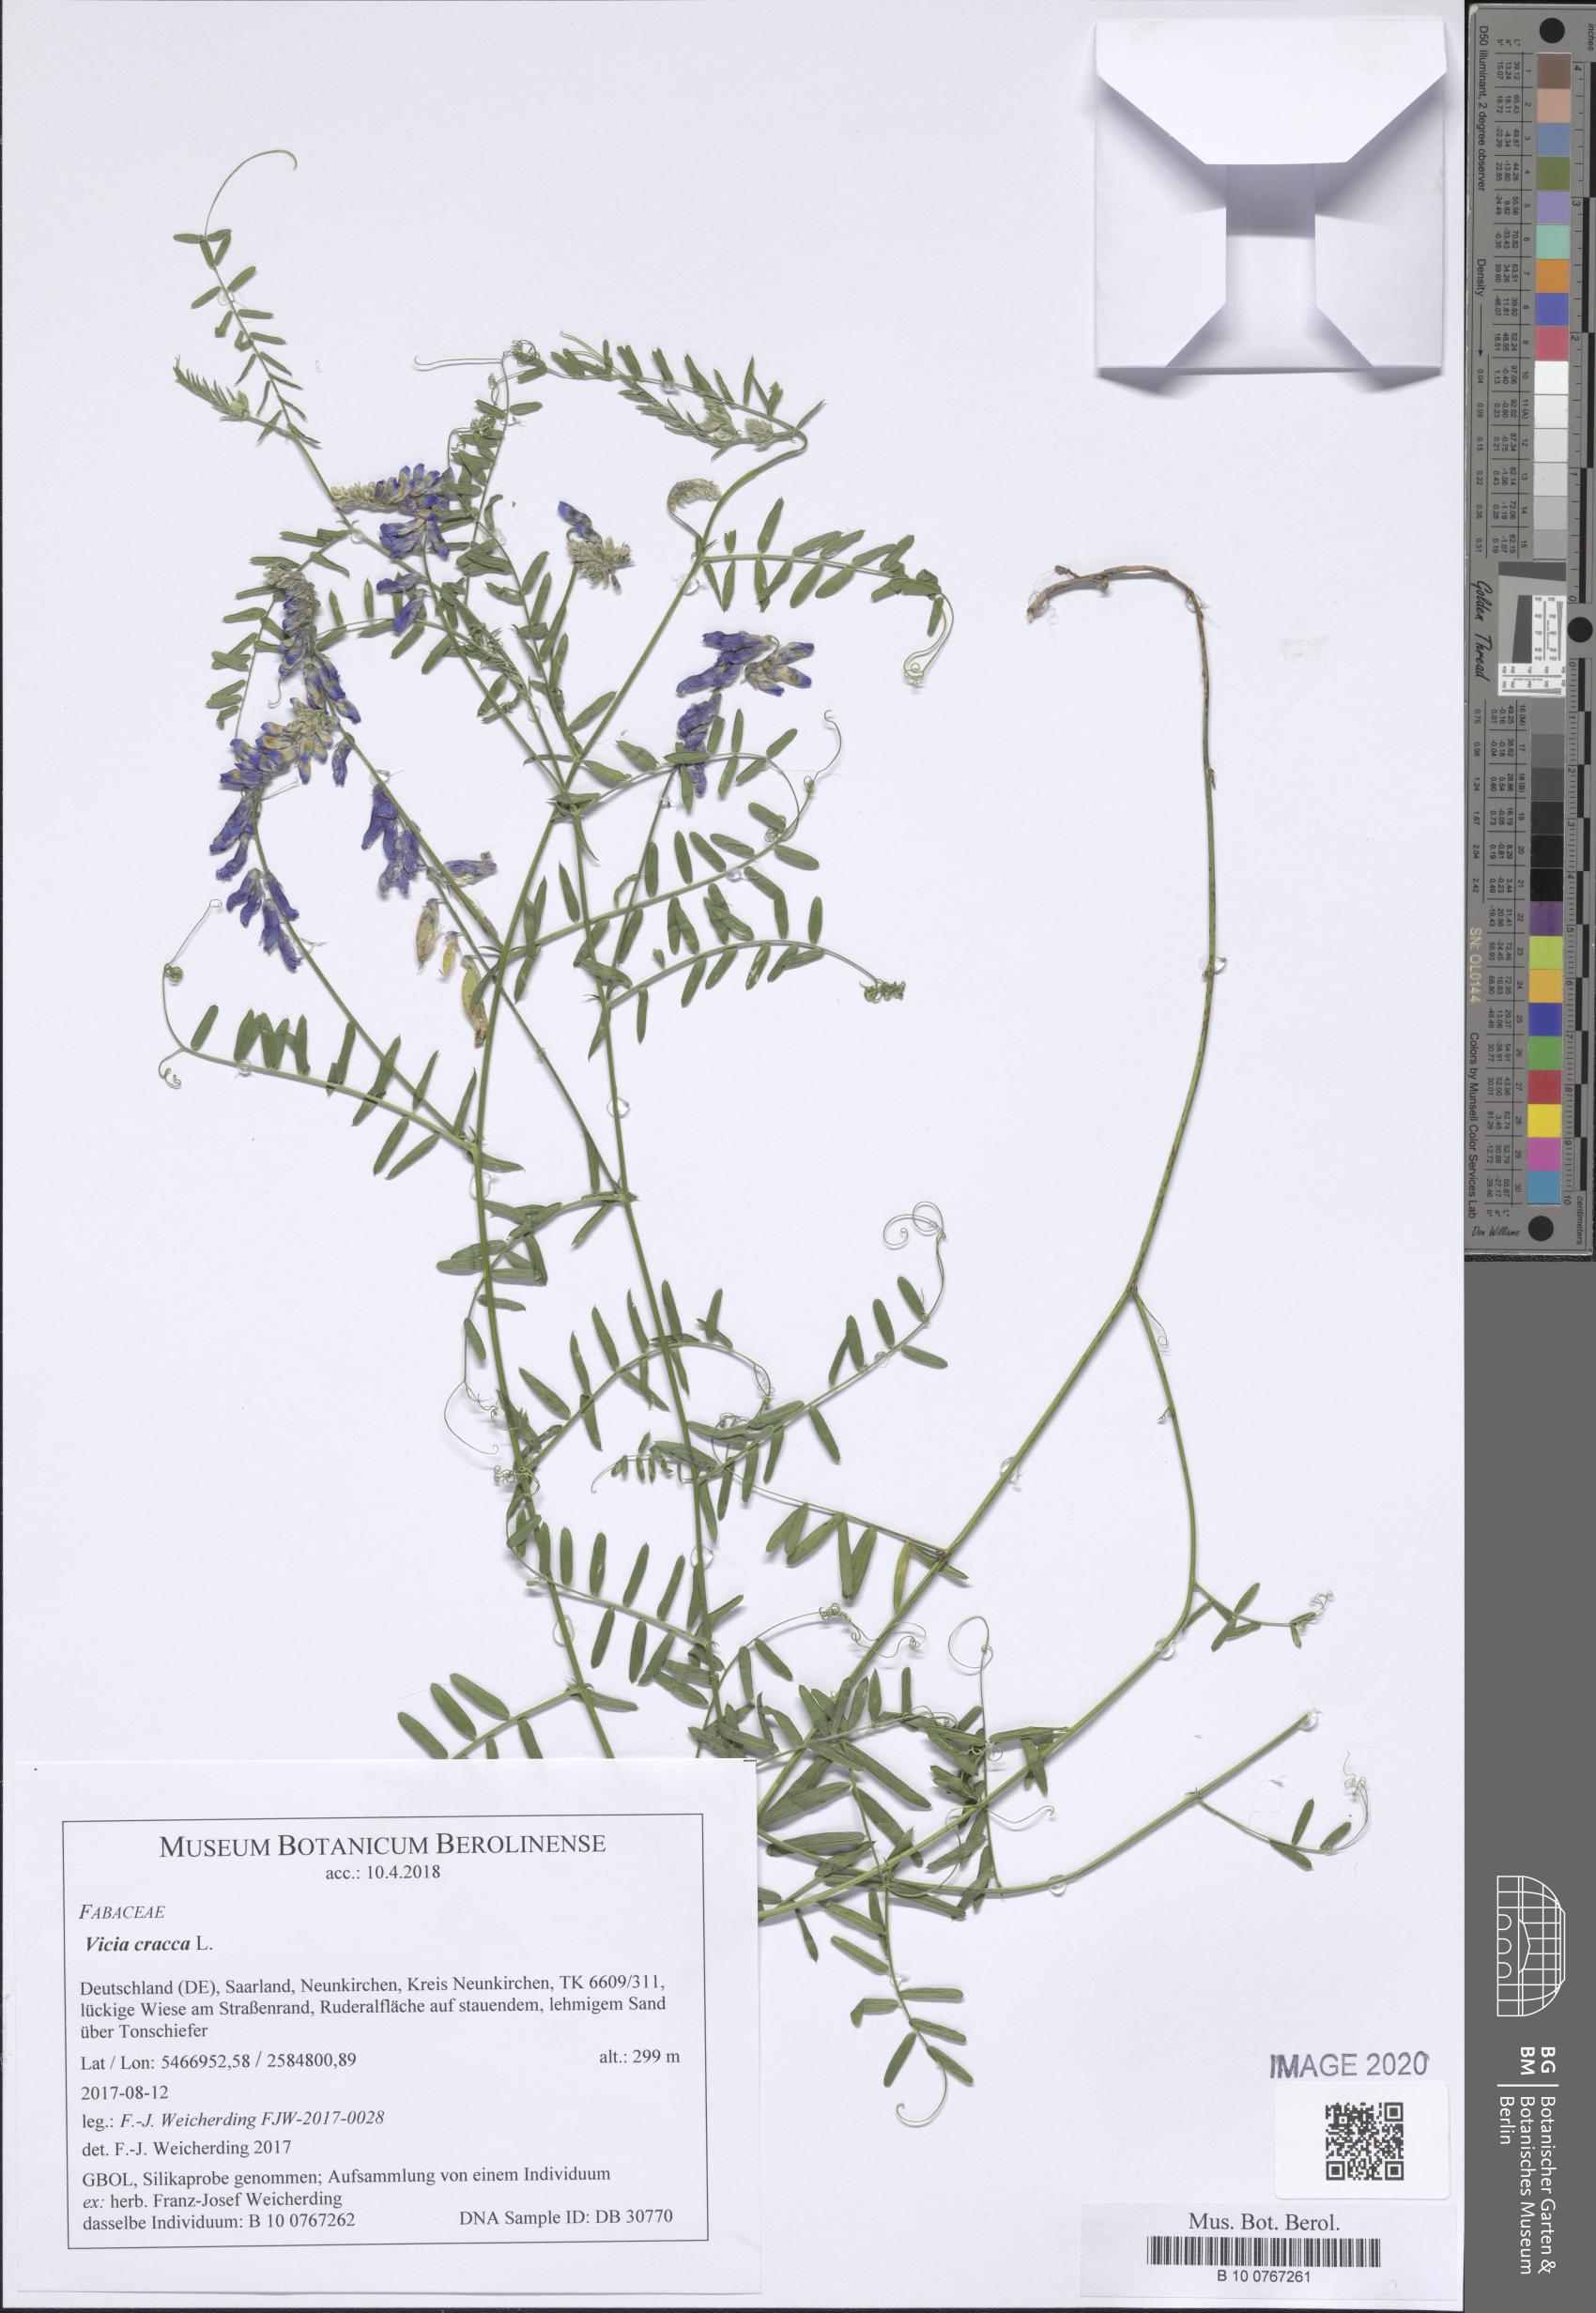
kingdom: Plantae
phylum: Tracheophyta
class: Magnoliopsida
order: Fabales
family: Fabaceae
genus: Vicia
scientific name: Vicia cracca
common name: Bird vetch
